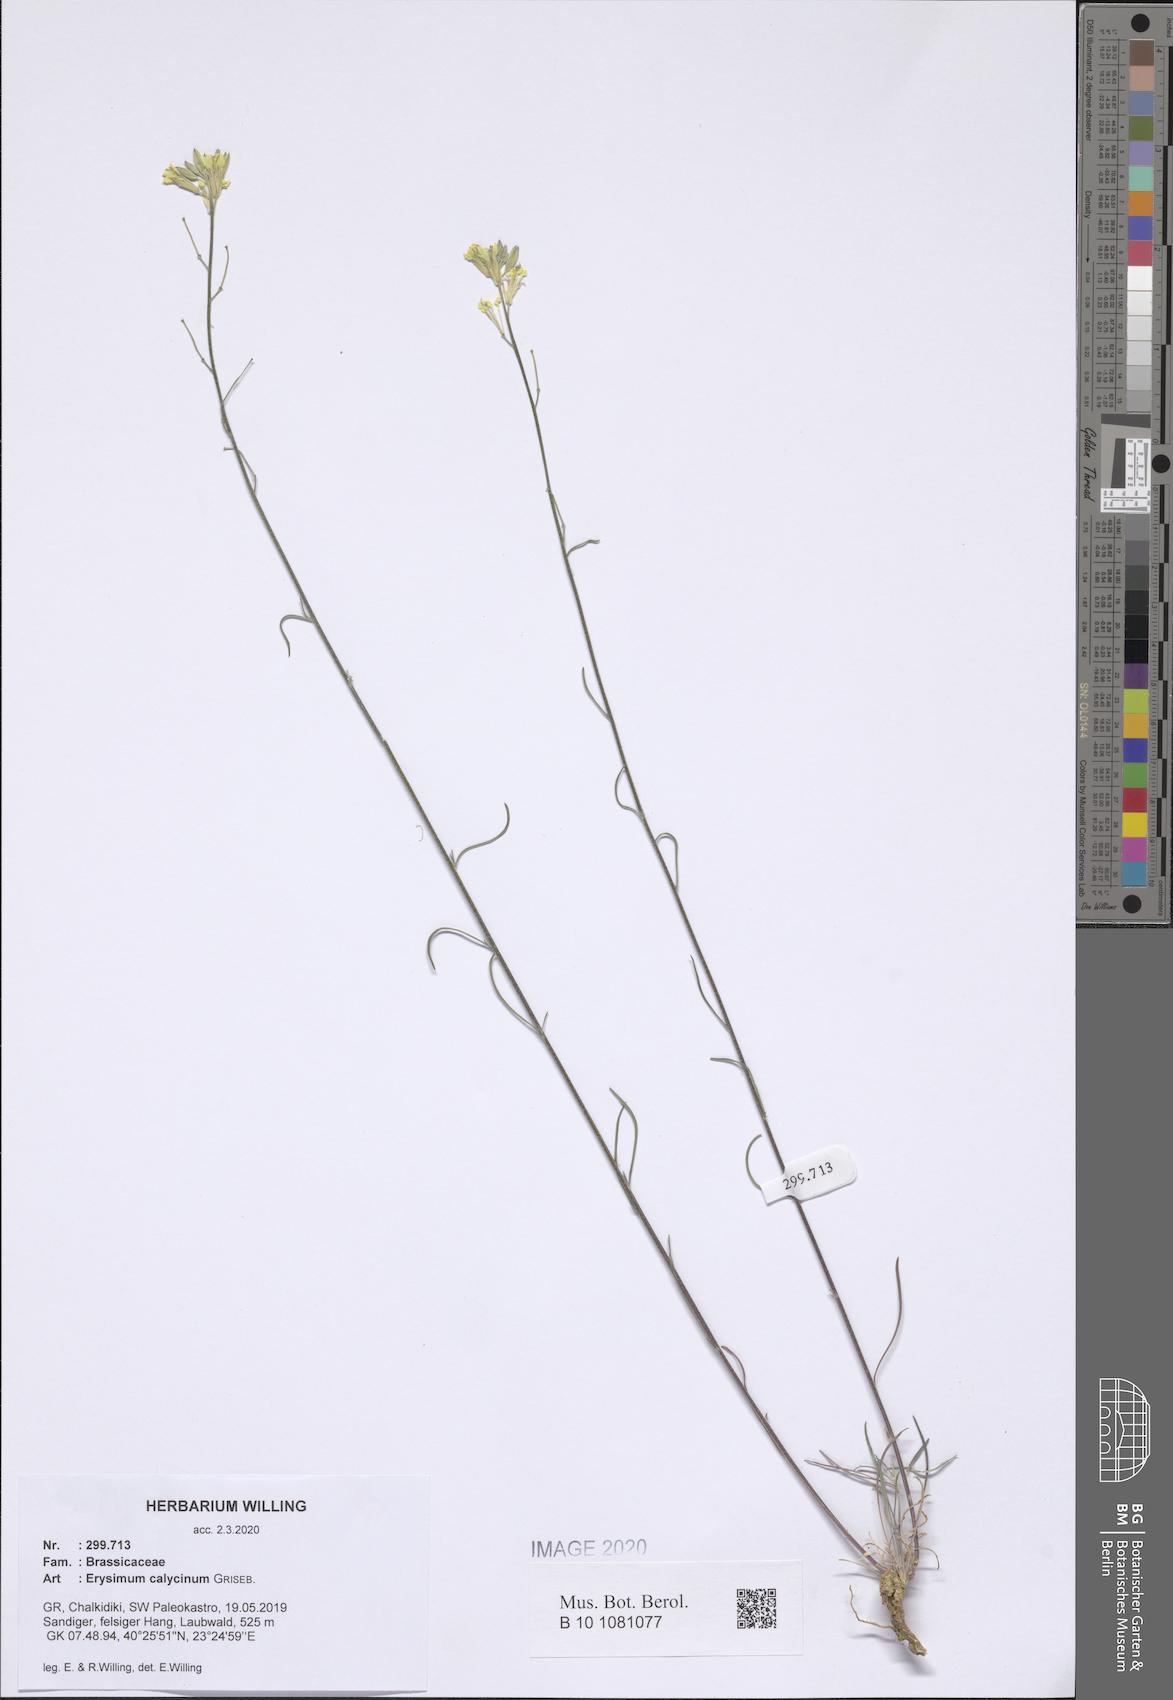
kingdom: Plantae
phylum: Tracheophyta
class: Magnoliopsida
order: Brassicales
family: Brassicaceae
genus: Erysimum
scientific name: Erysimum calycinum
